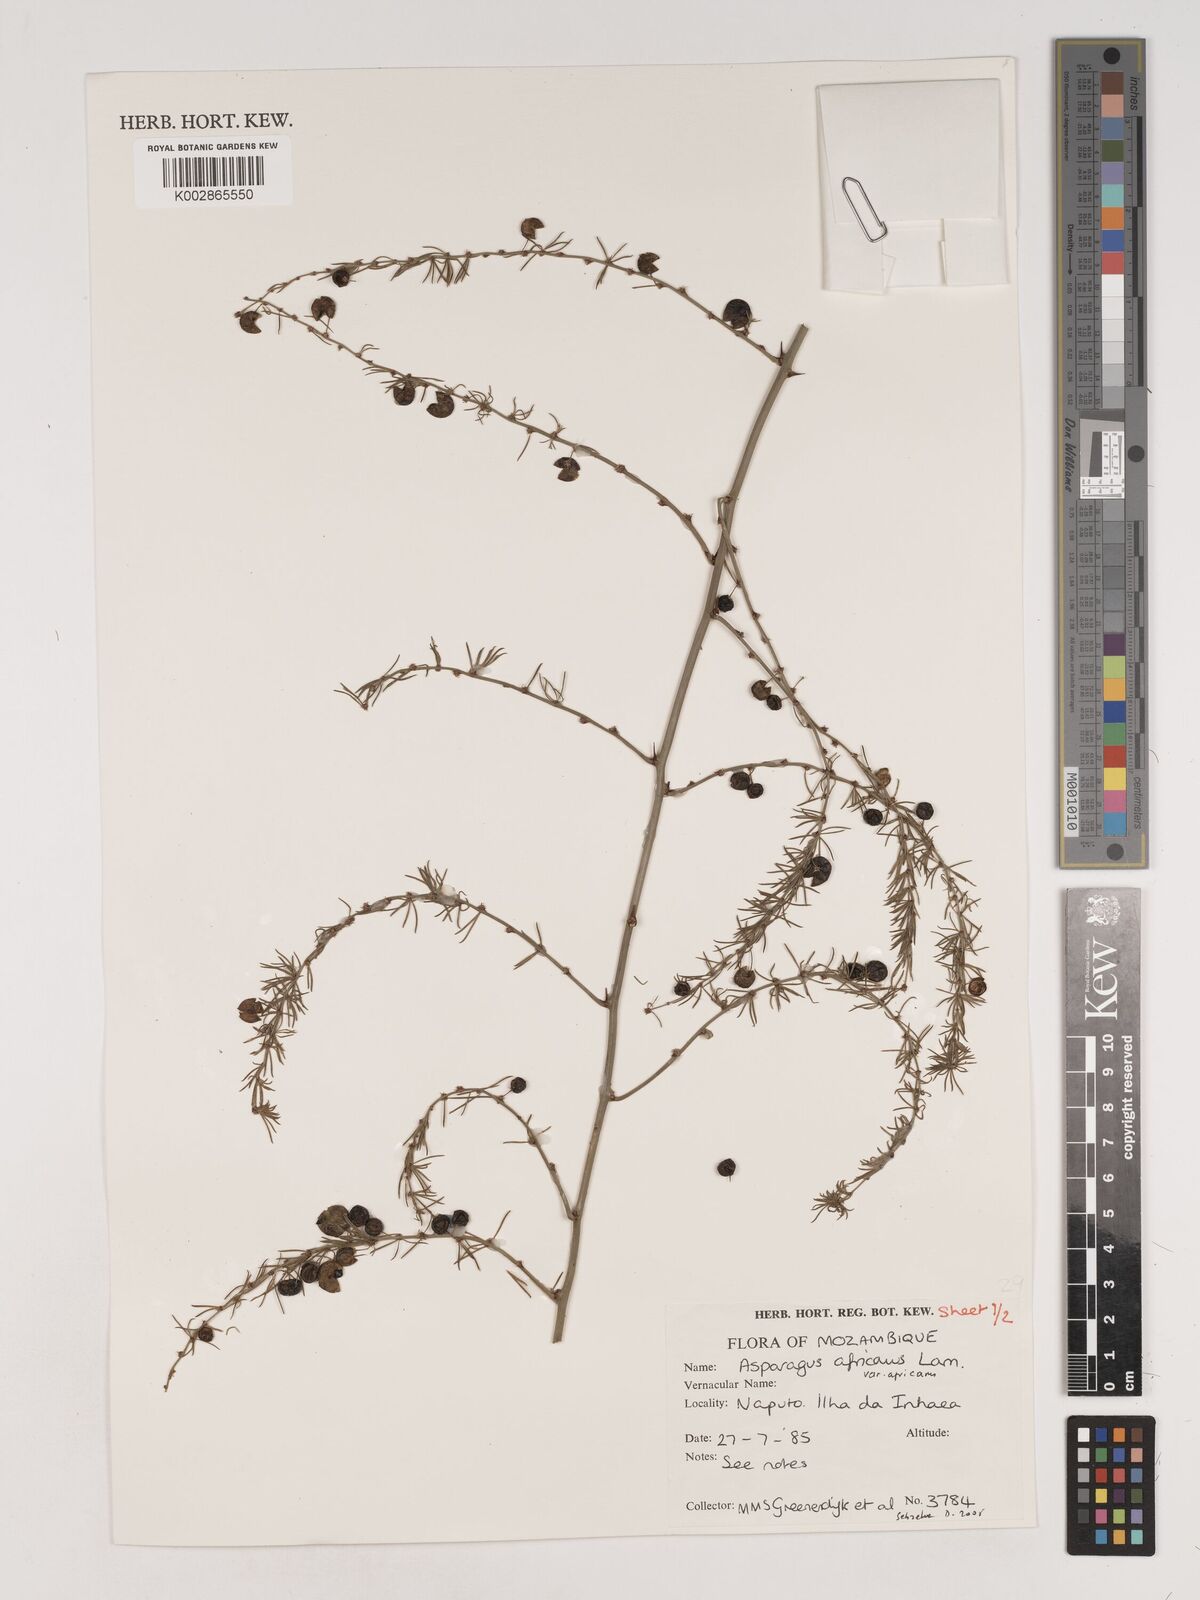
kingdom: Plantae
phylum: Tracheophyta
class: Liliopsida
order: Asparagales
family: Asparagaceae
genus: Asparagus
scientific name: Asparagus africanus
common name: Asparagus-fern
